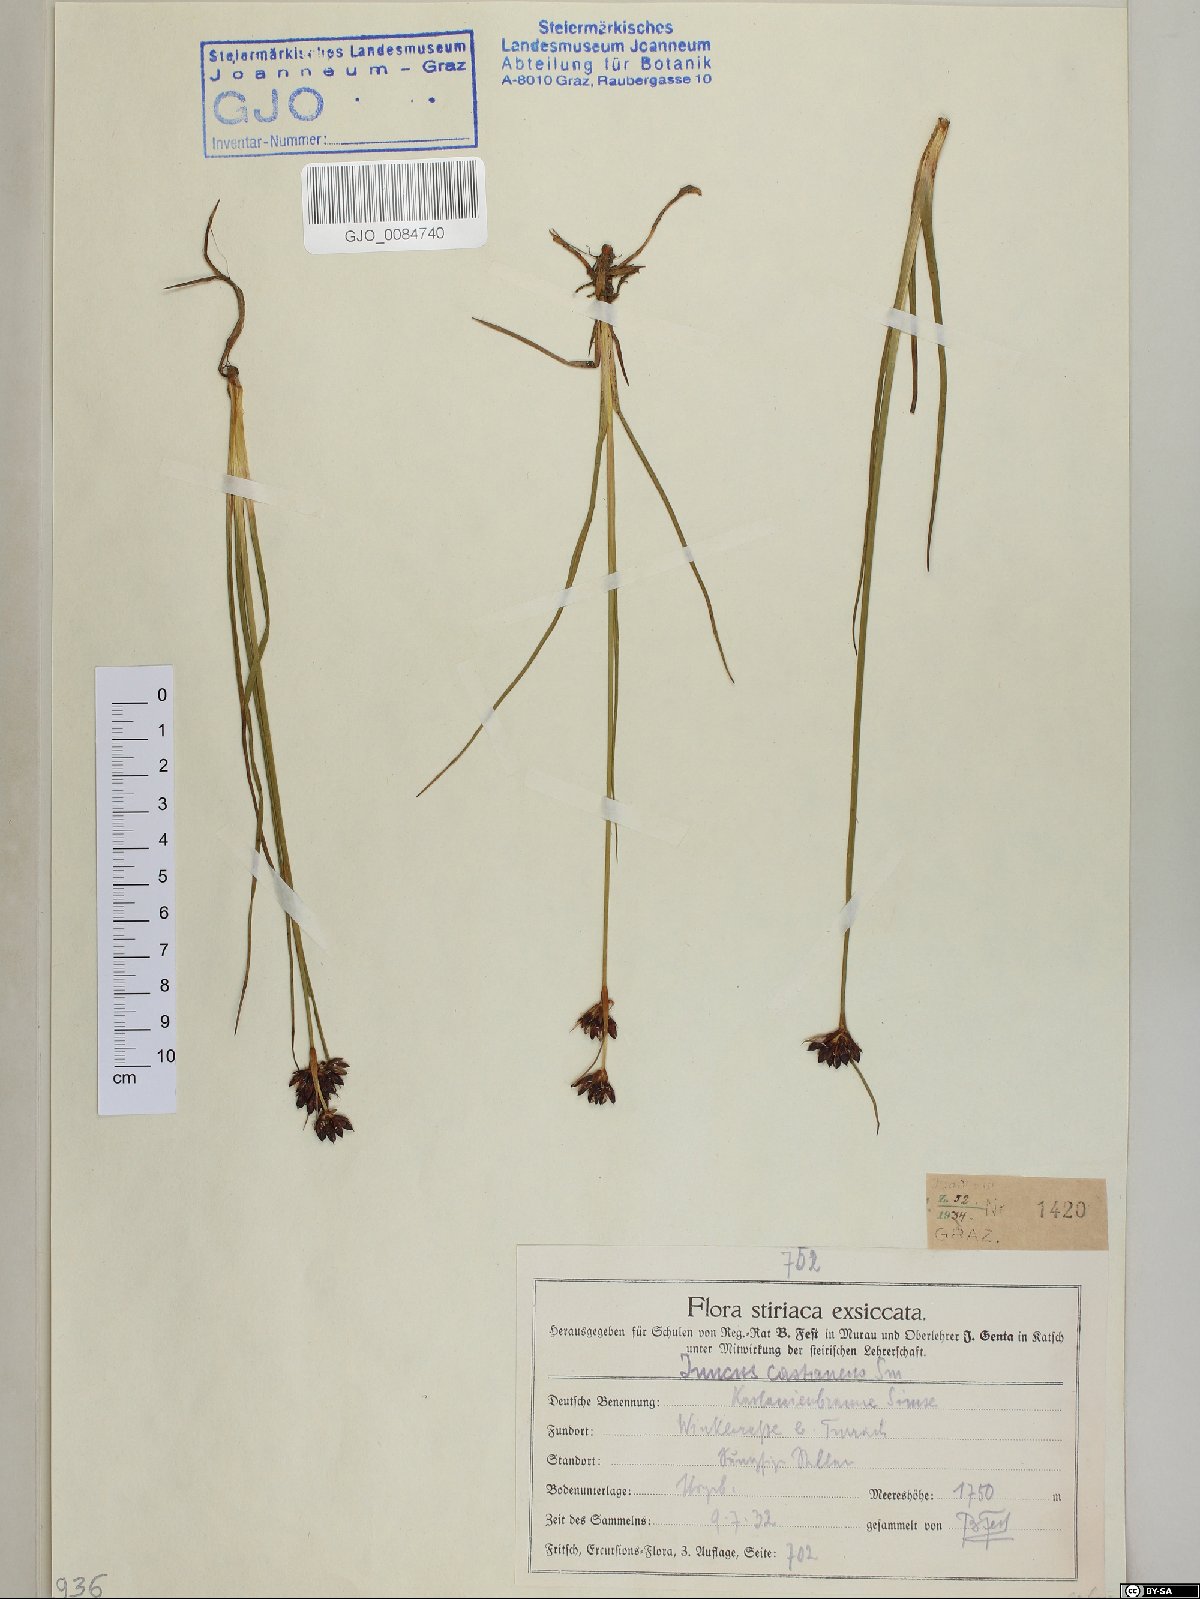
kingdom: Plantae
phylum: Tracheophyta
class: Liliopsida
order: Poales
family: Juncaceae
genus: Juncus
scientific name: Juncus castaneus
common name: Chestnut rush
